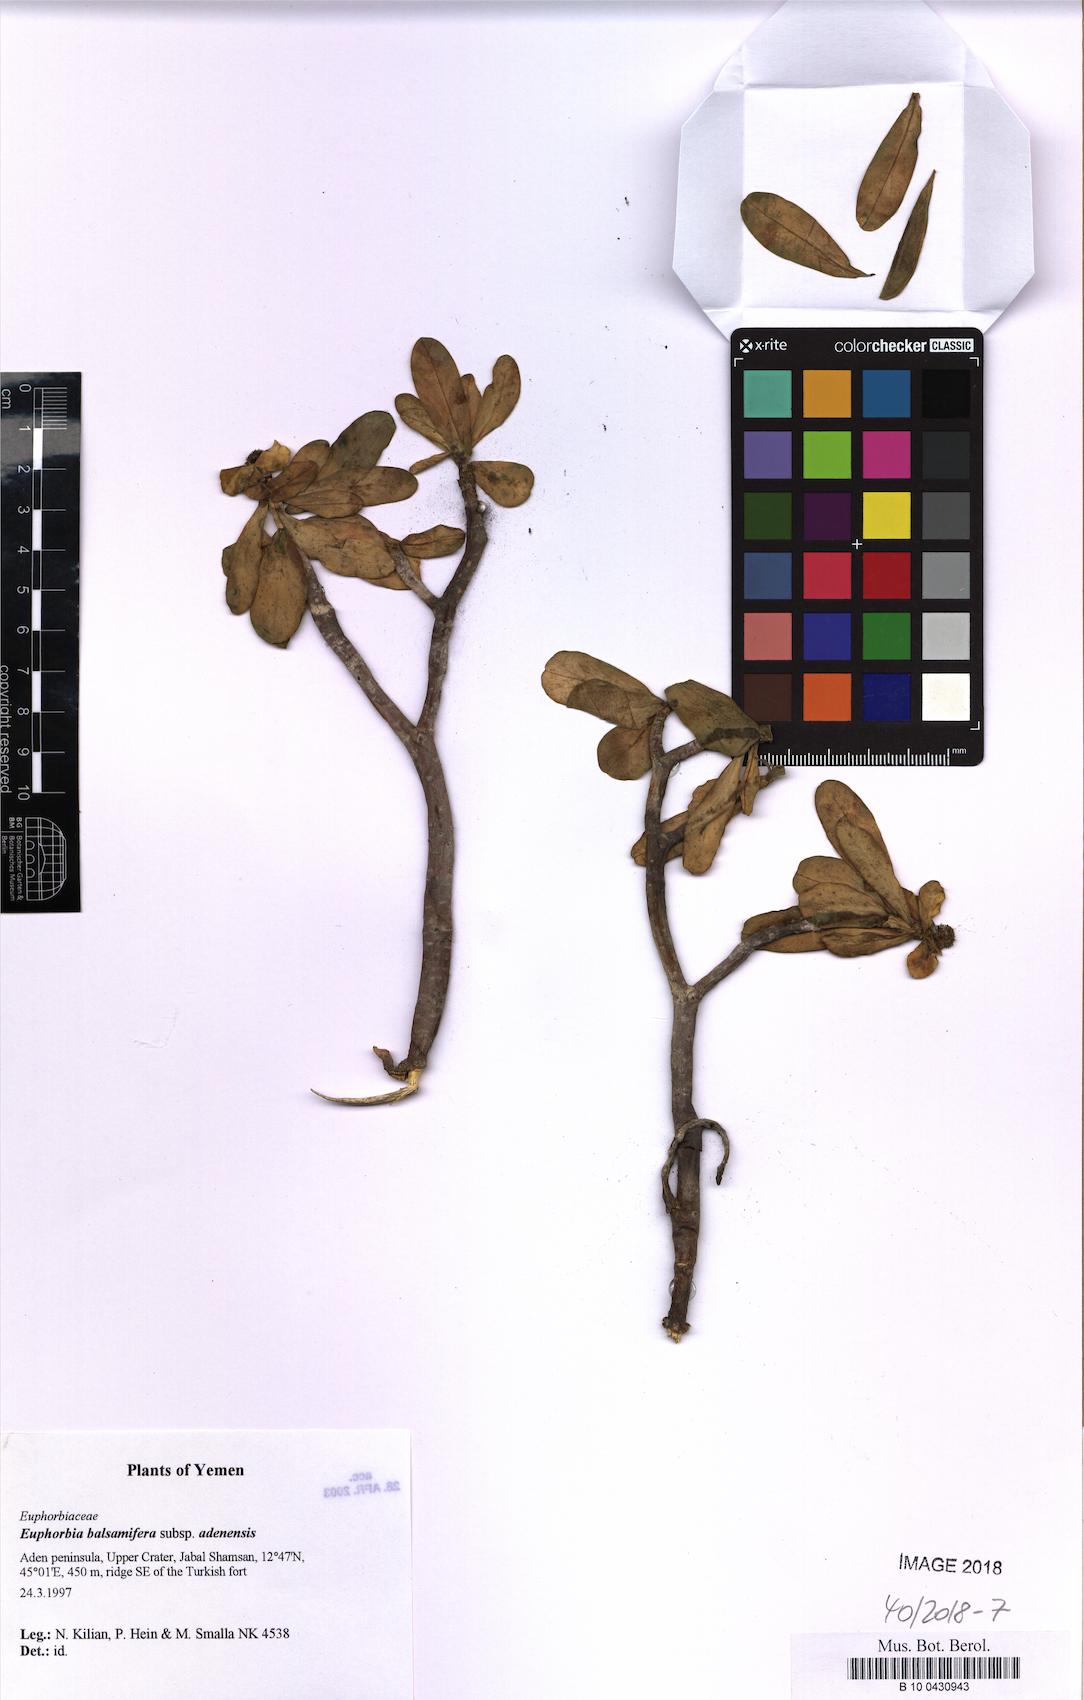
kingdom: Plantae
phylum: Tracheophyta
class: Magnoliopsida
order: Malpighiales
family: Euphorbiaceae
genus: Euphorbia
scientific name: Euphorbia adenensis
